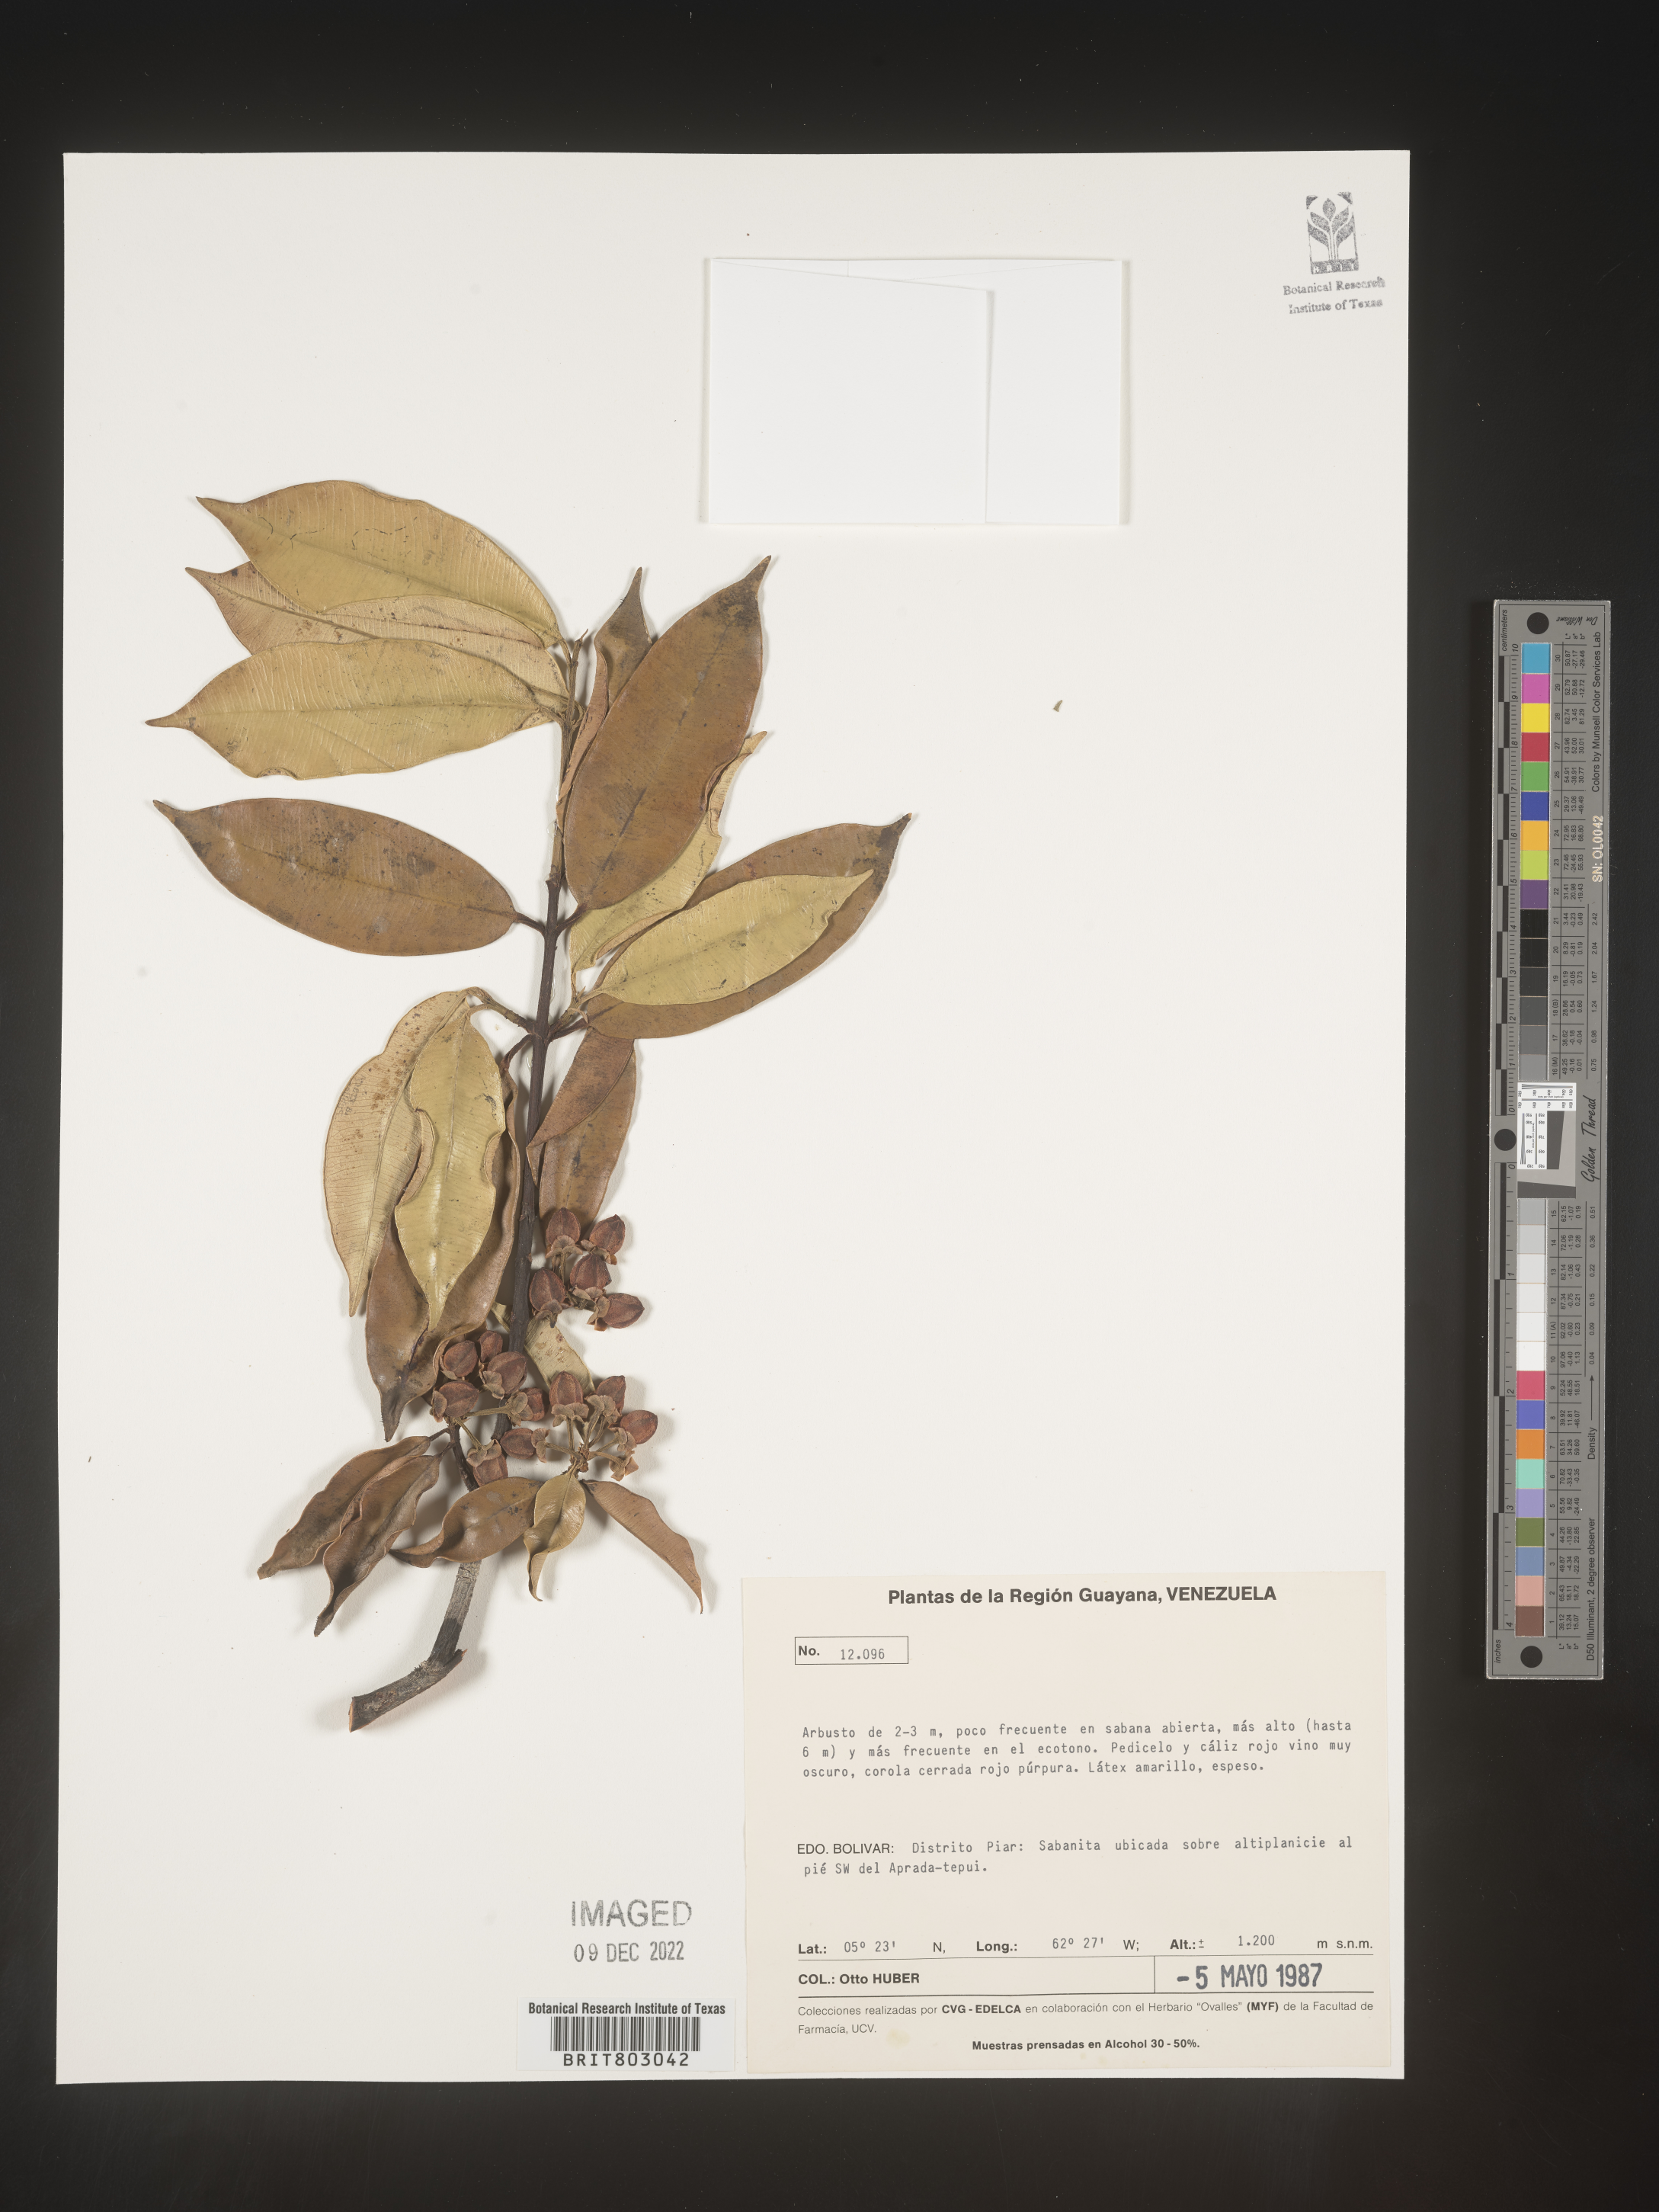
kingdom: Plantae
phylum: Tracheophyta
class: Magnoliopsida
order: Malpighiales
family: Clusiaceae
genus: Symphonia
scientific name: Symphonia
